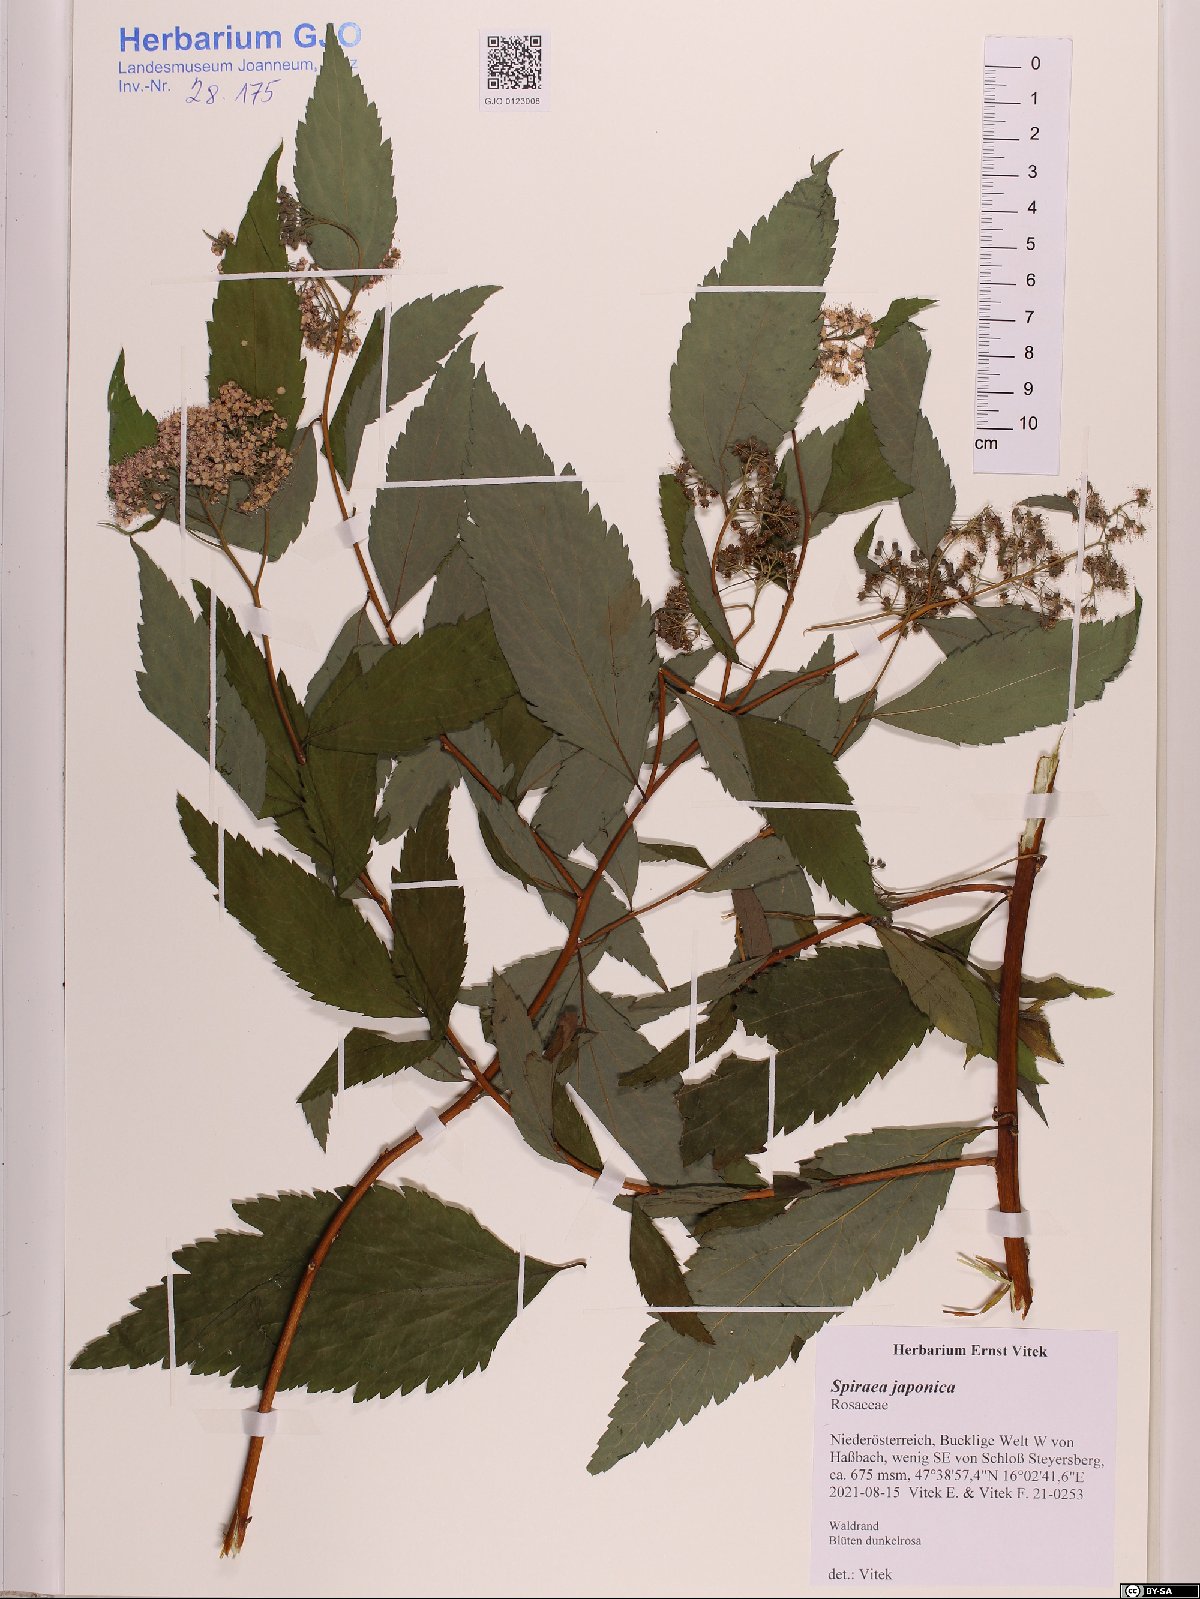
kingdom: Plantae
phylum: Tracheophyta
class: Magnoliopsida
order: Rosales
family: Rosaceae
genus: Spiraea
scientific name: Spiraea japonica
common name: Japanese spiraea
